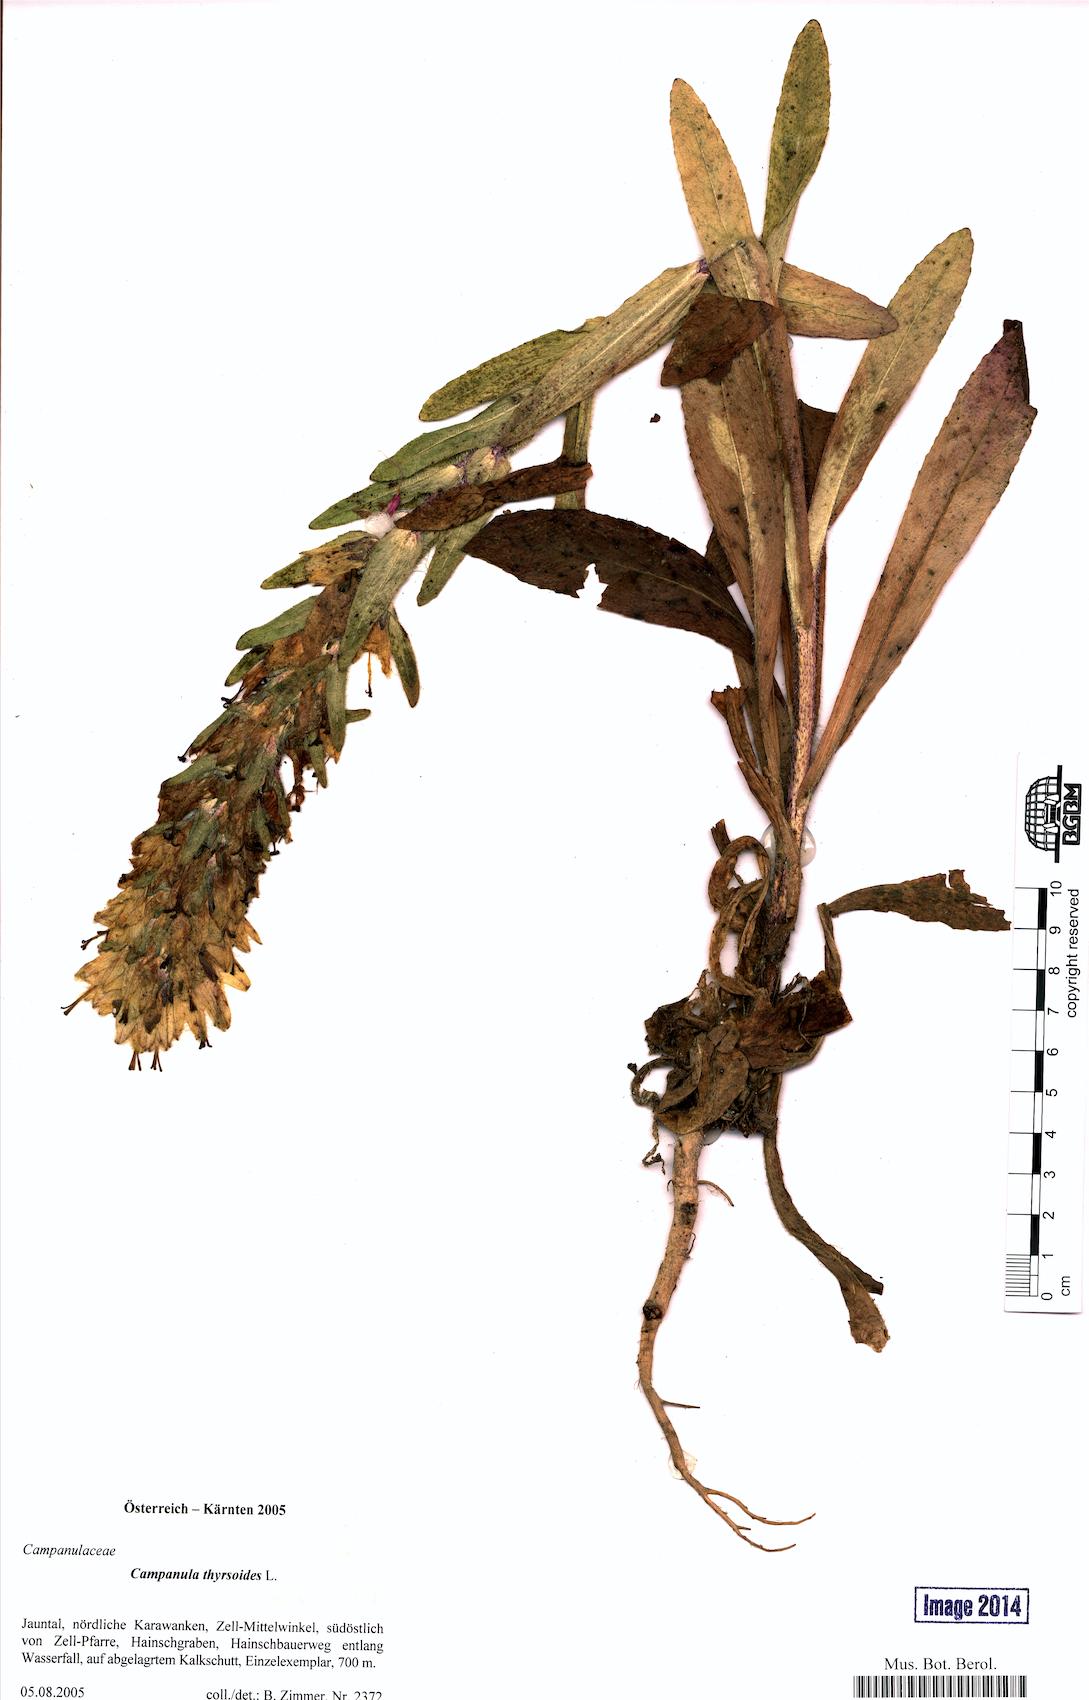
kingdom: Plantae
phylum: Tracheophyta
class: Magnoliopsida
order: Asterales
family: Campanulaceae
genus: Campanula
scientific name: Campanula thyrsoides
